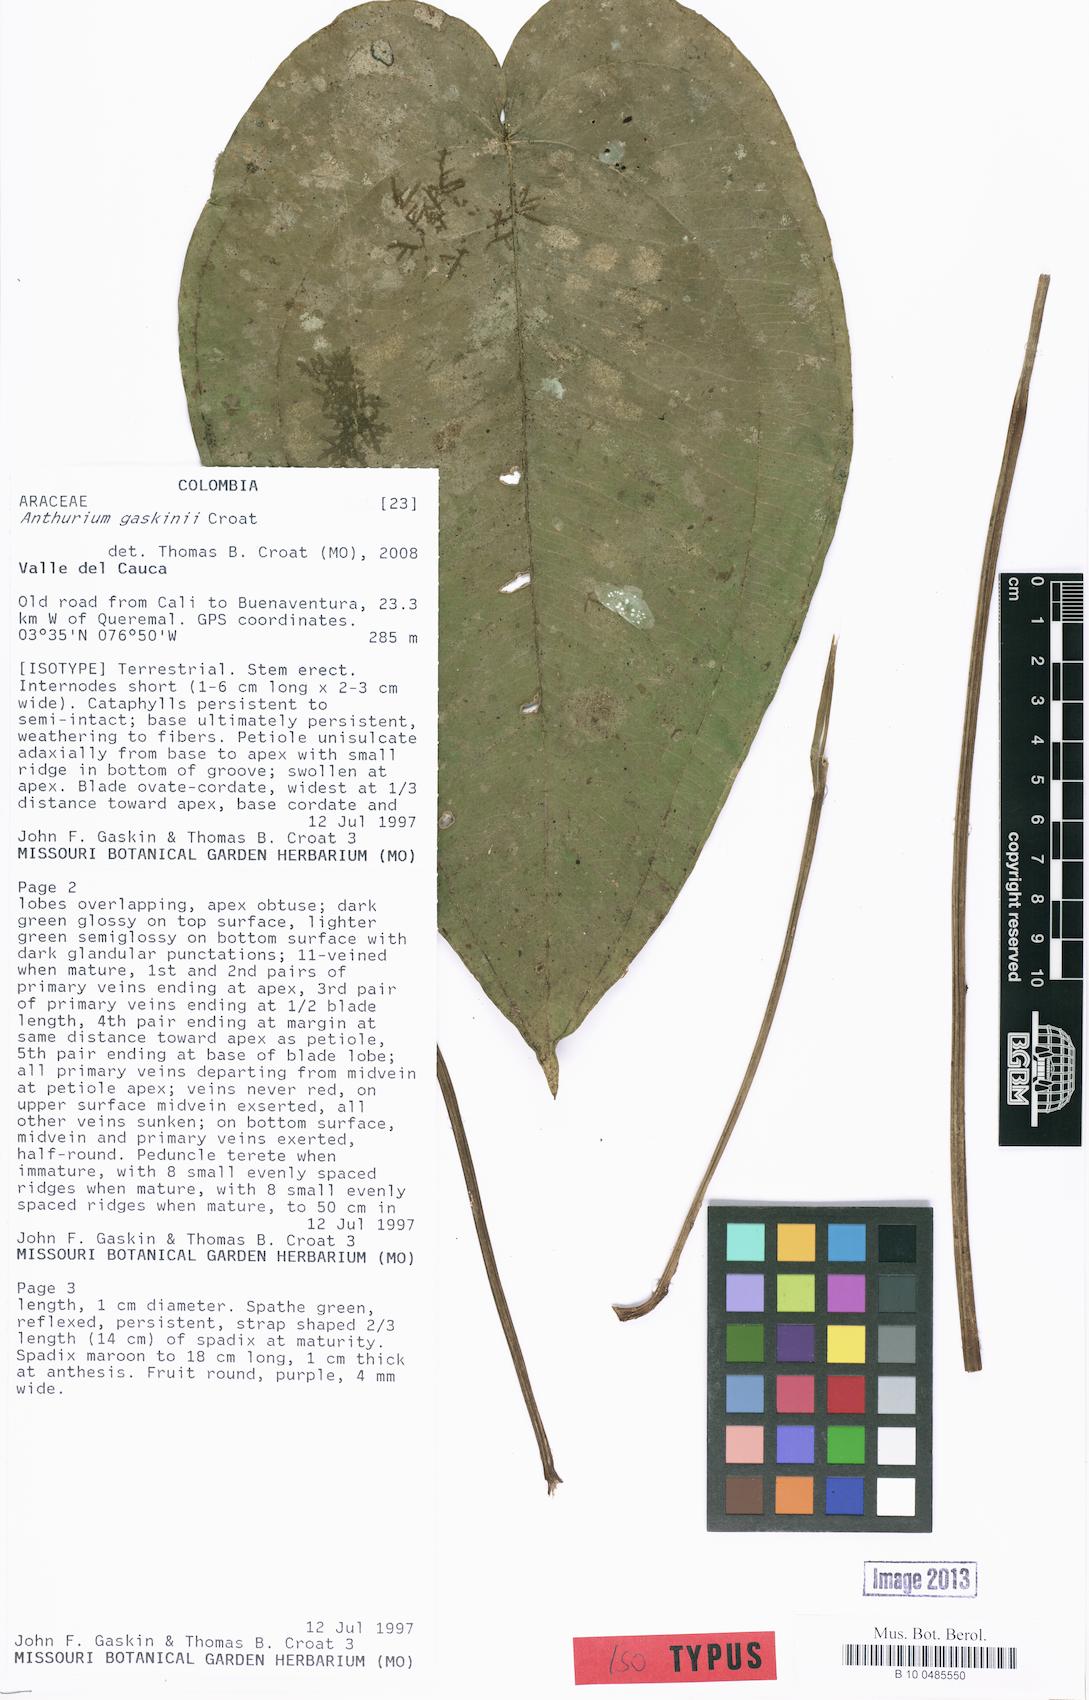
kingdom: Plantae
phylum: Tracheophyta
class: Liliopsida
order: Alismatales
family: Araceae
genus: Anthurium
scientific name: Anthurium gaskinii
